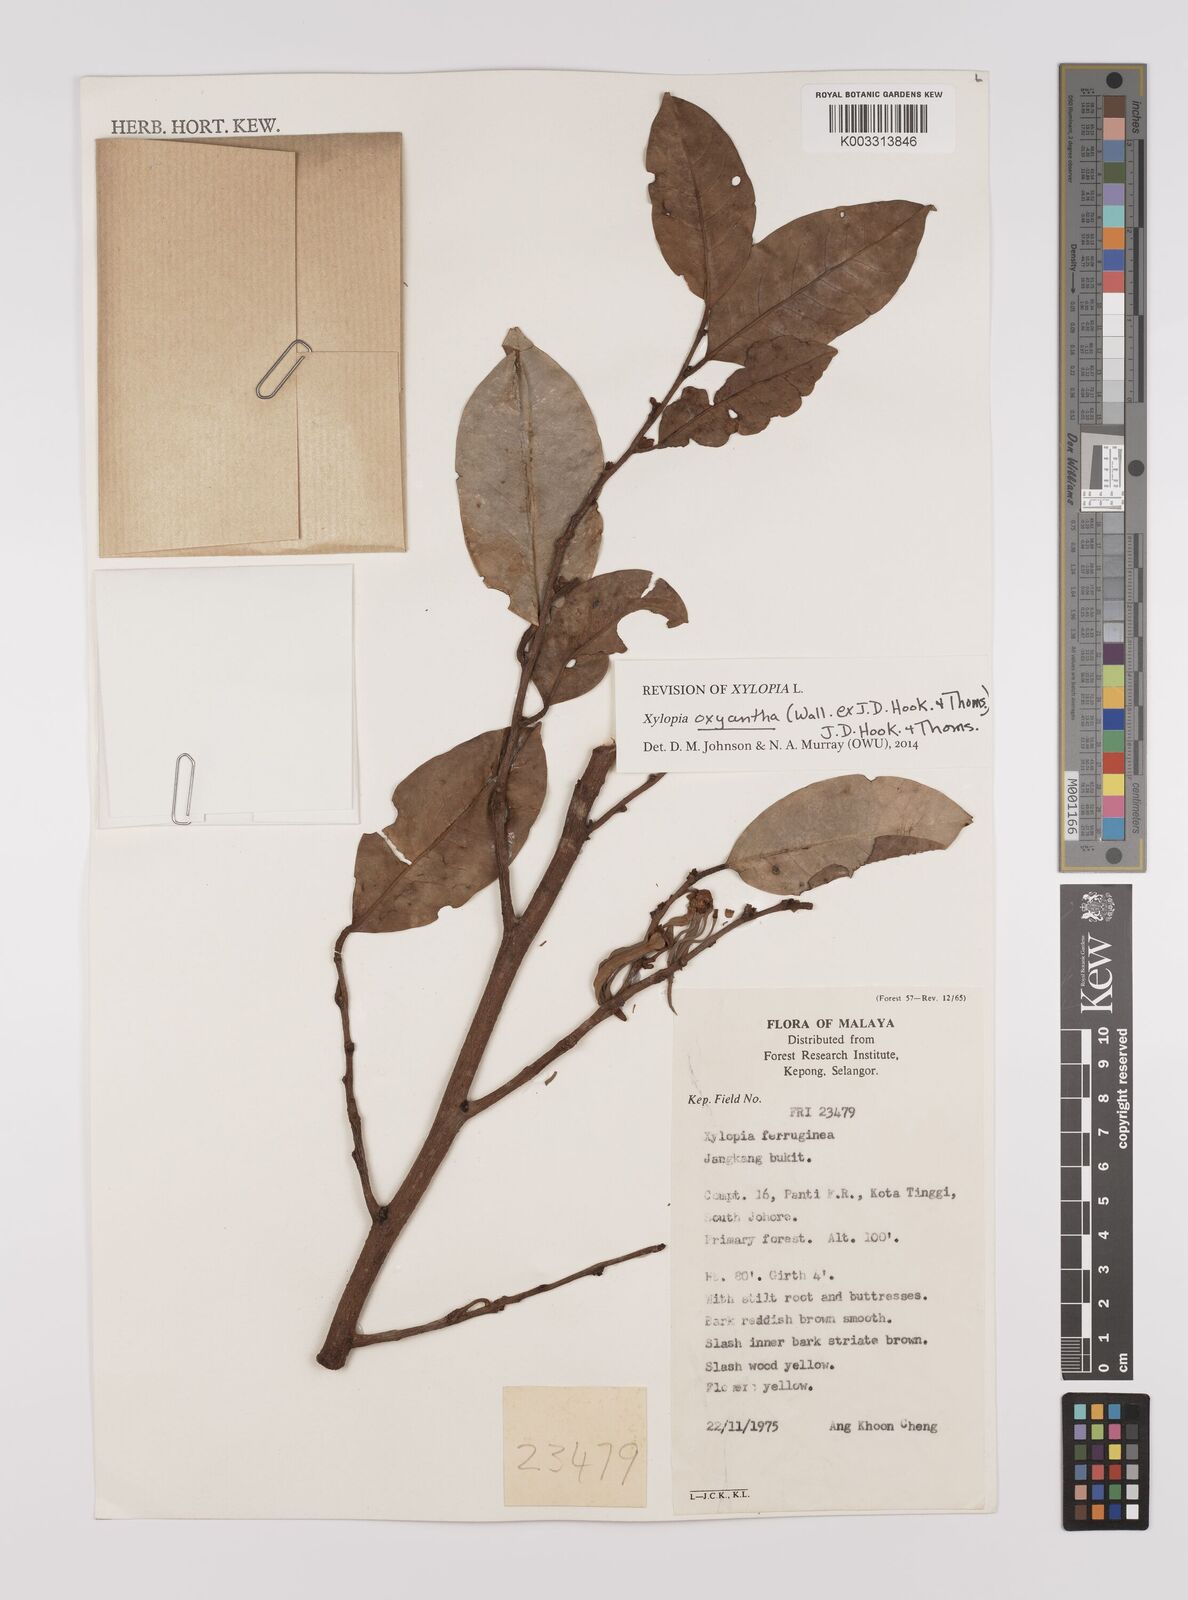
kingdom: Plantae
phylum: Tracheophyta
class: Magnoliopsida
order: Magnoliales
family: Annonaceae
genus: Xylopia
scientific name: Xylopia ferruginea
